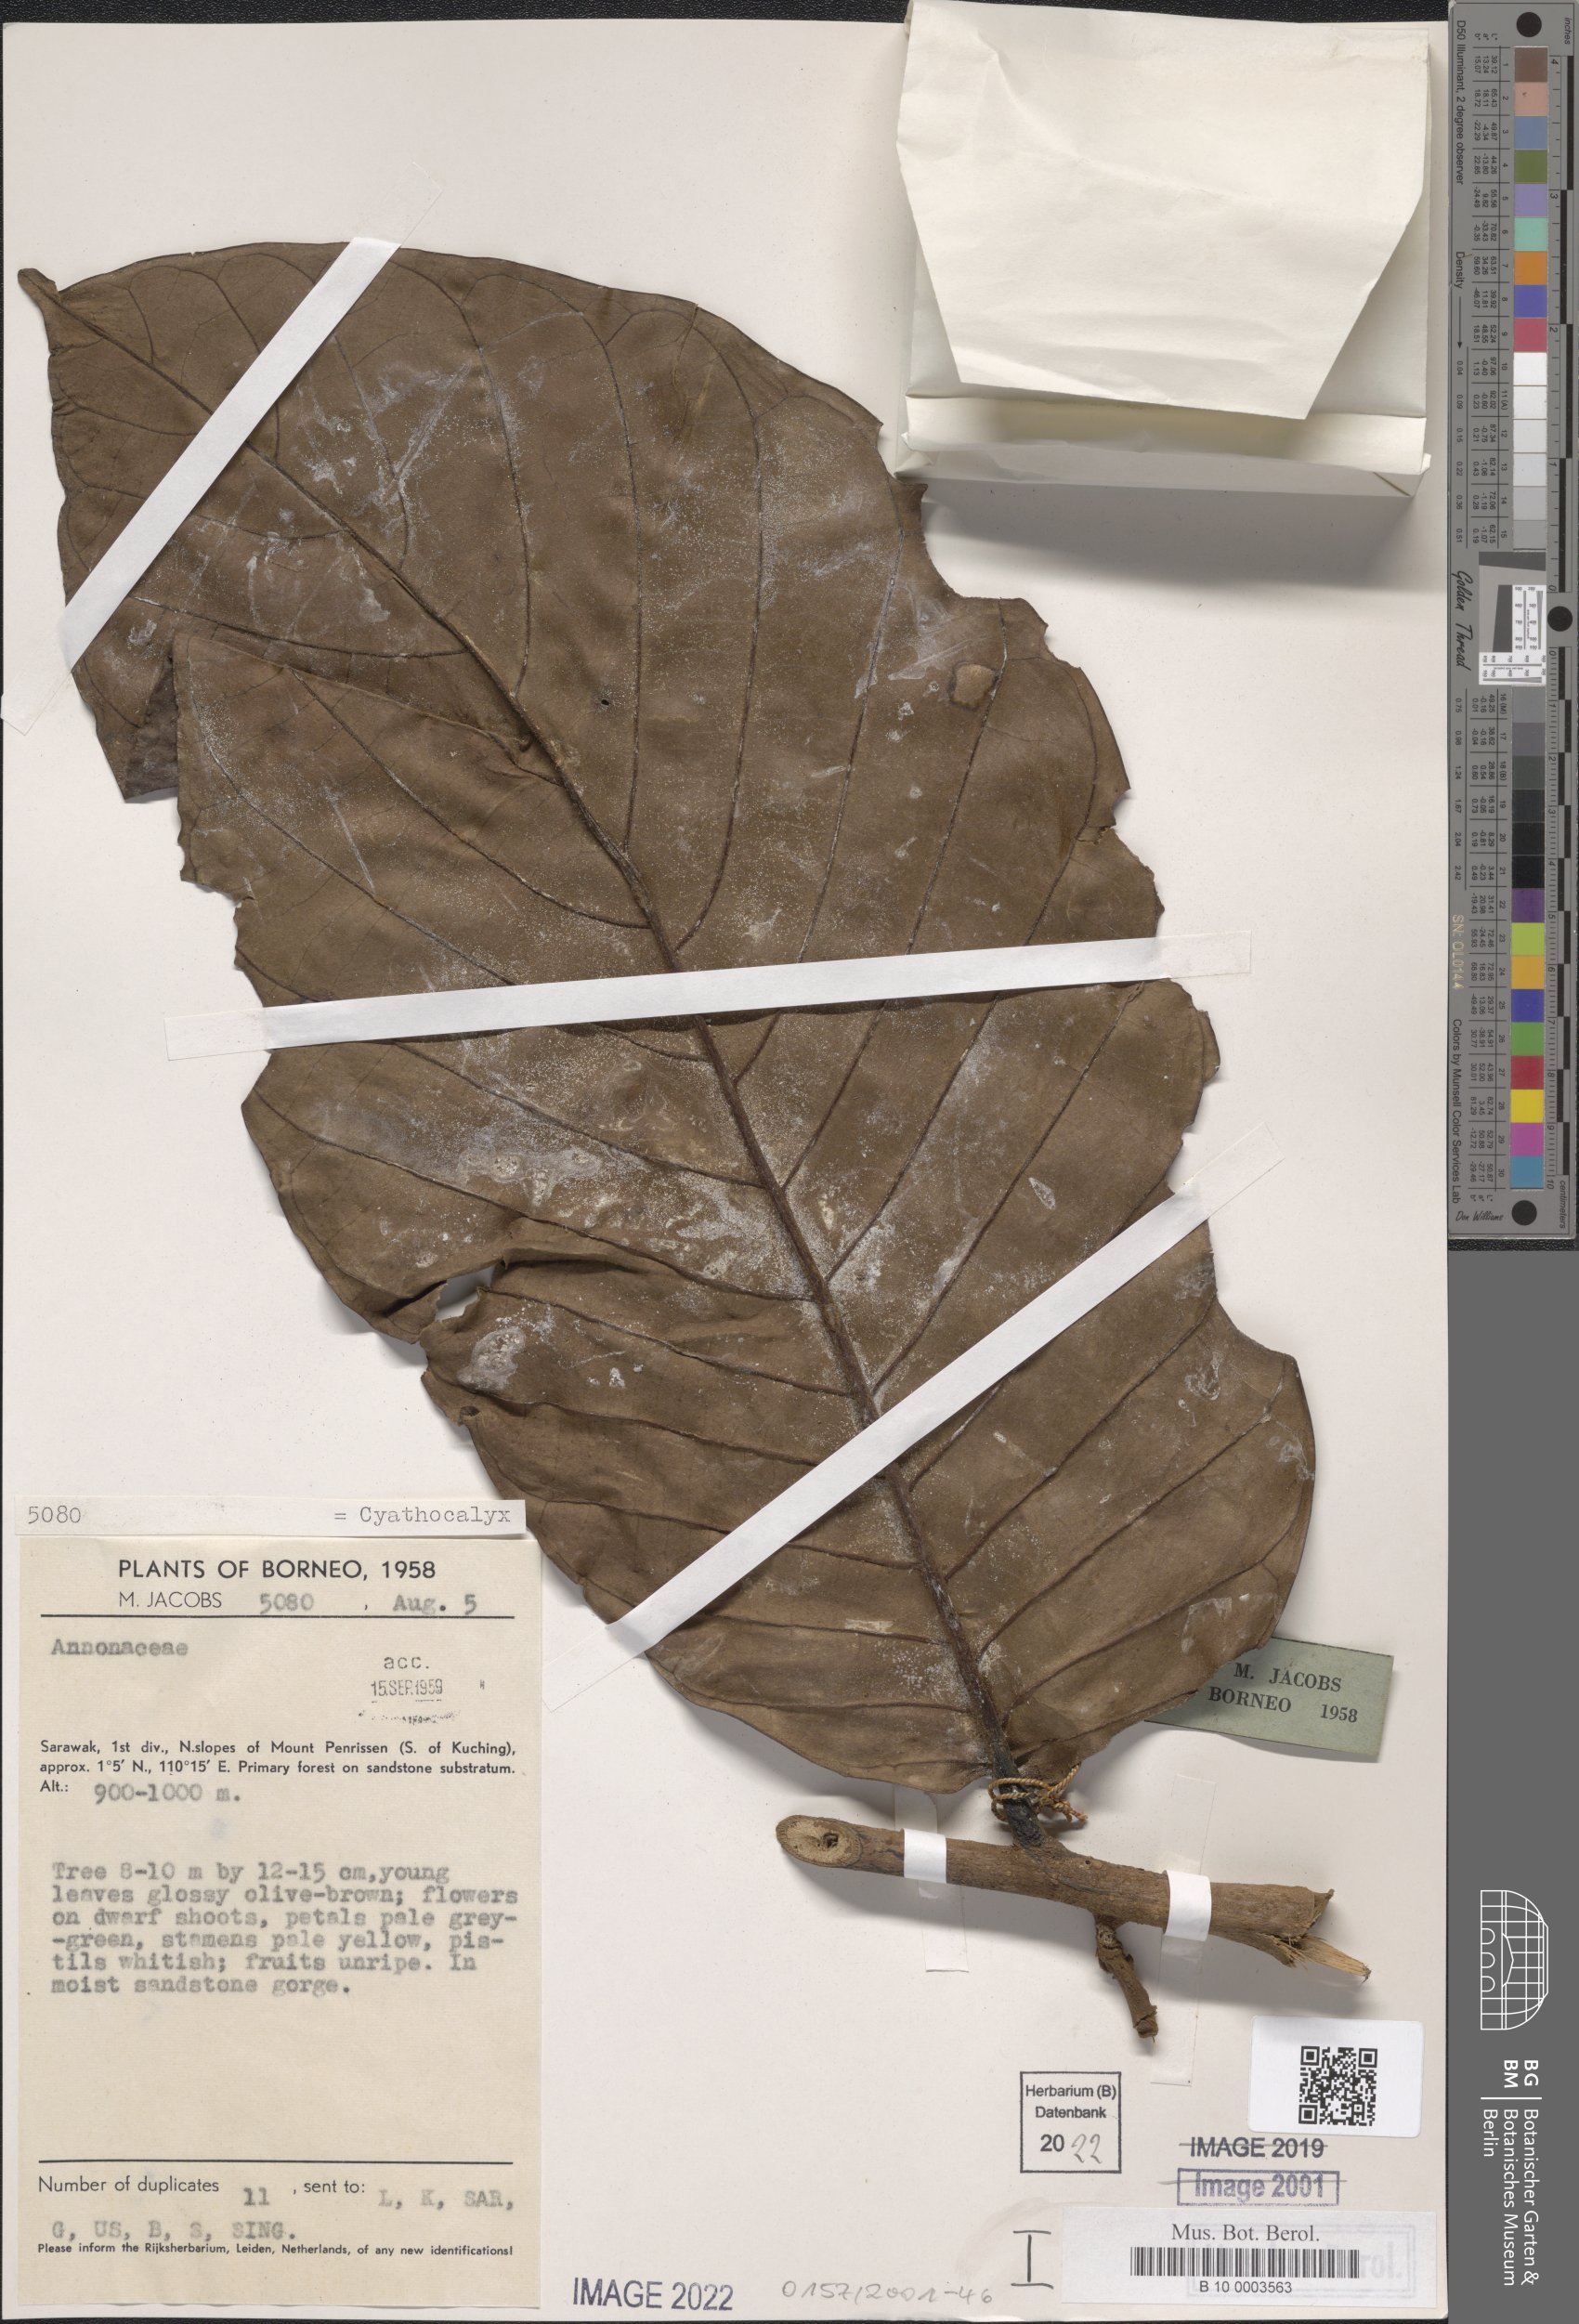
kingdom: Plantae
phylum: Tracheophyta
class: Magnoliopsida
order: Magnoliales
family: Annonaceae
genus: Cyathocalyx
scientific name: Cyathocalyx
